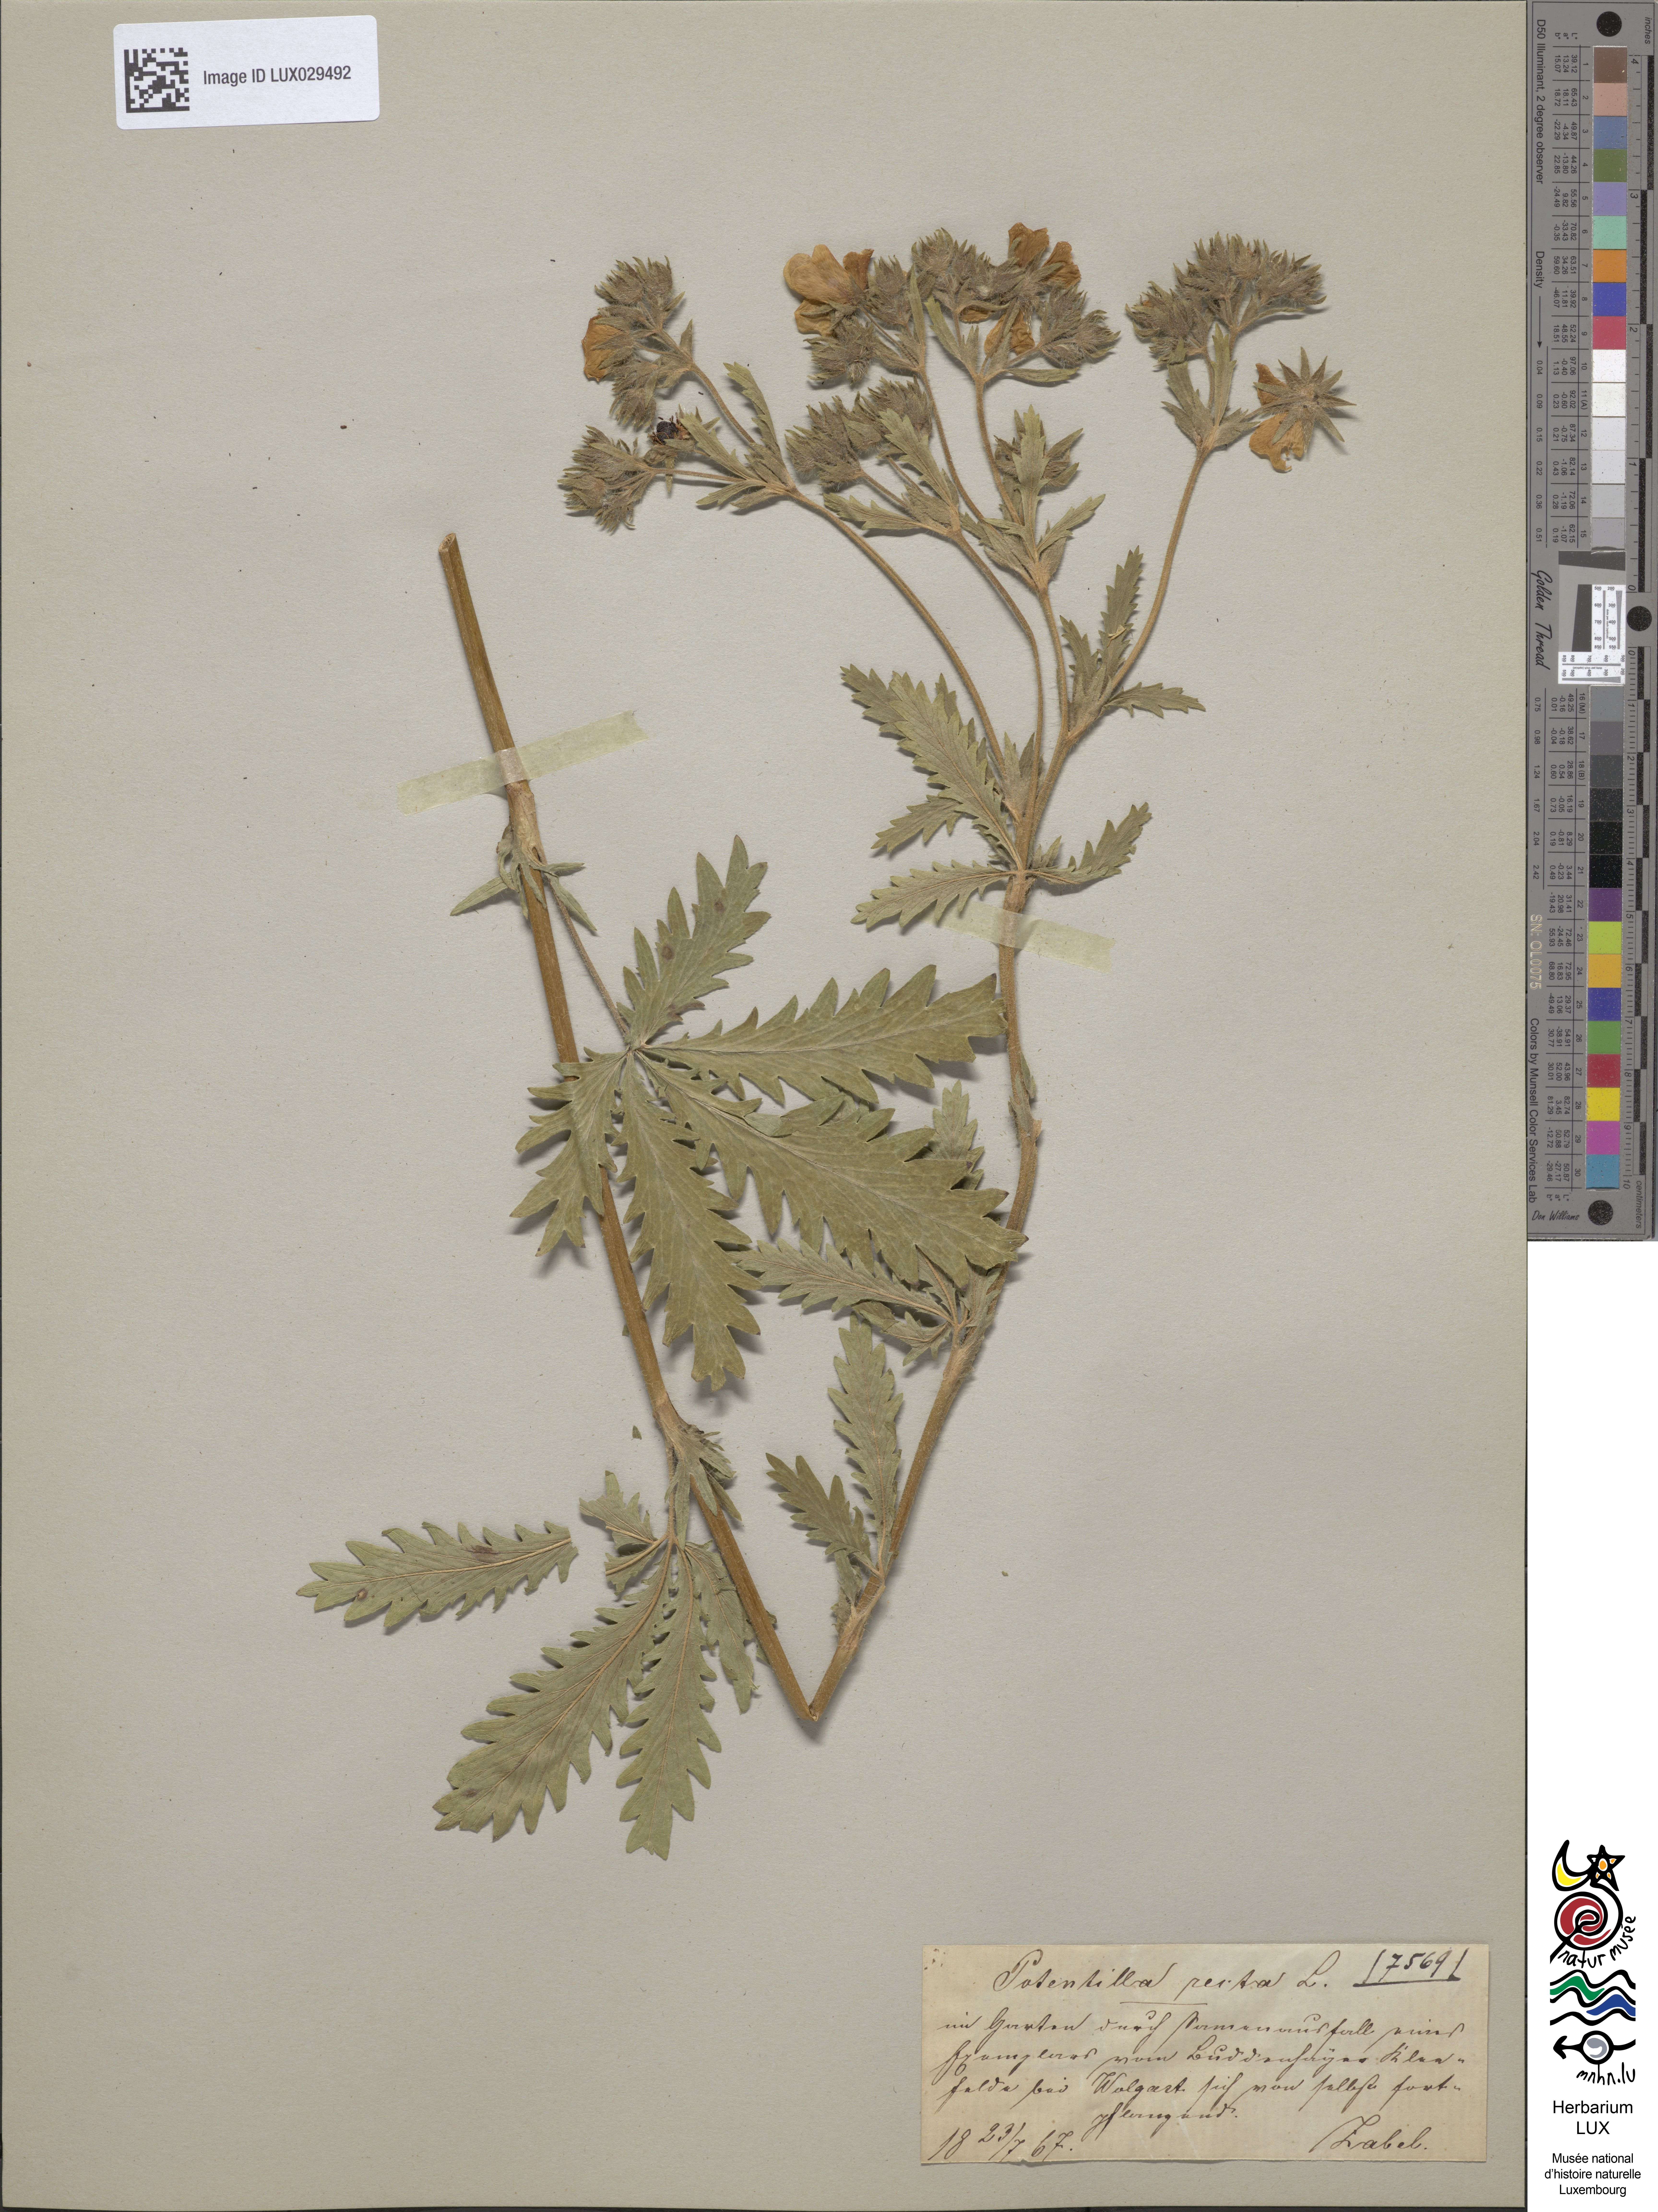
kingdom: Plantae
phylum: Tracheophyta
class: Magnoliopsida
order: Rosales
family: Rosaceae
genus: Potentilla
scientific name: Potentilla recta
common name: Sulphur cinquefoil
